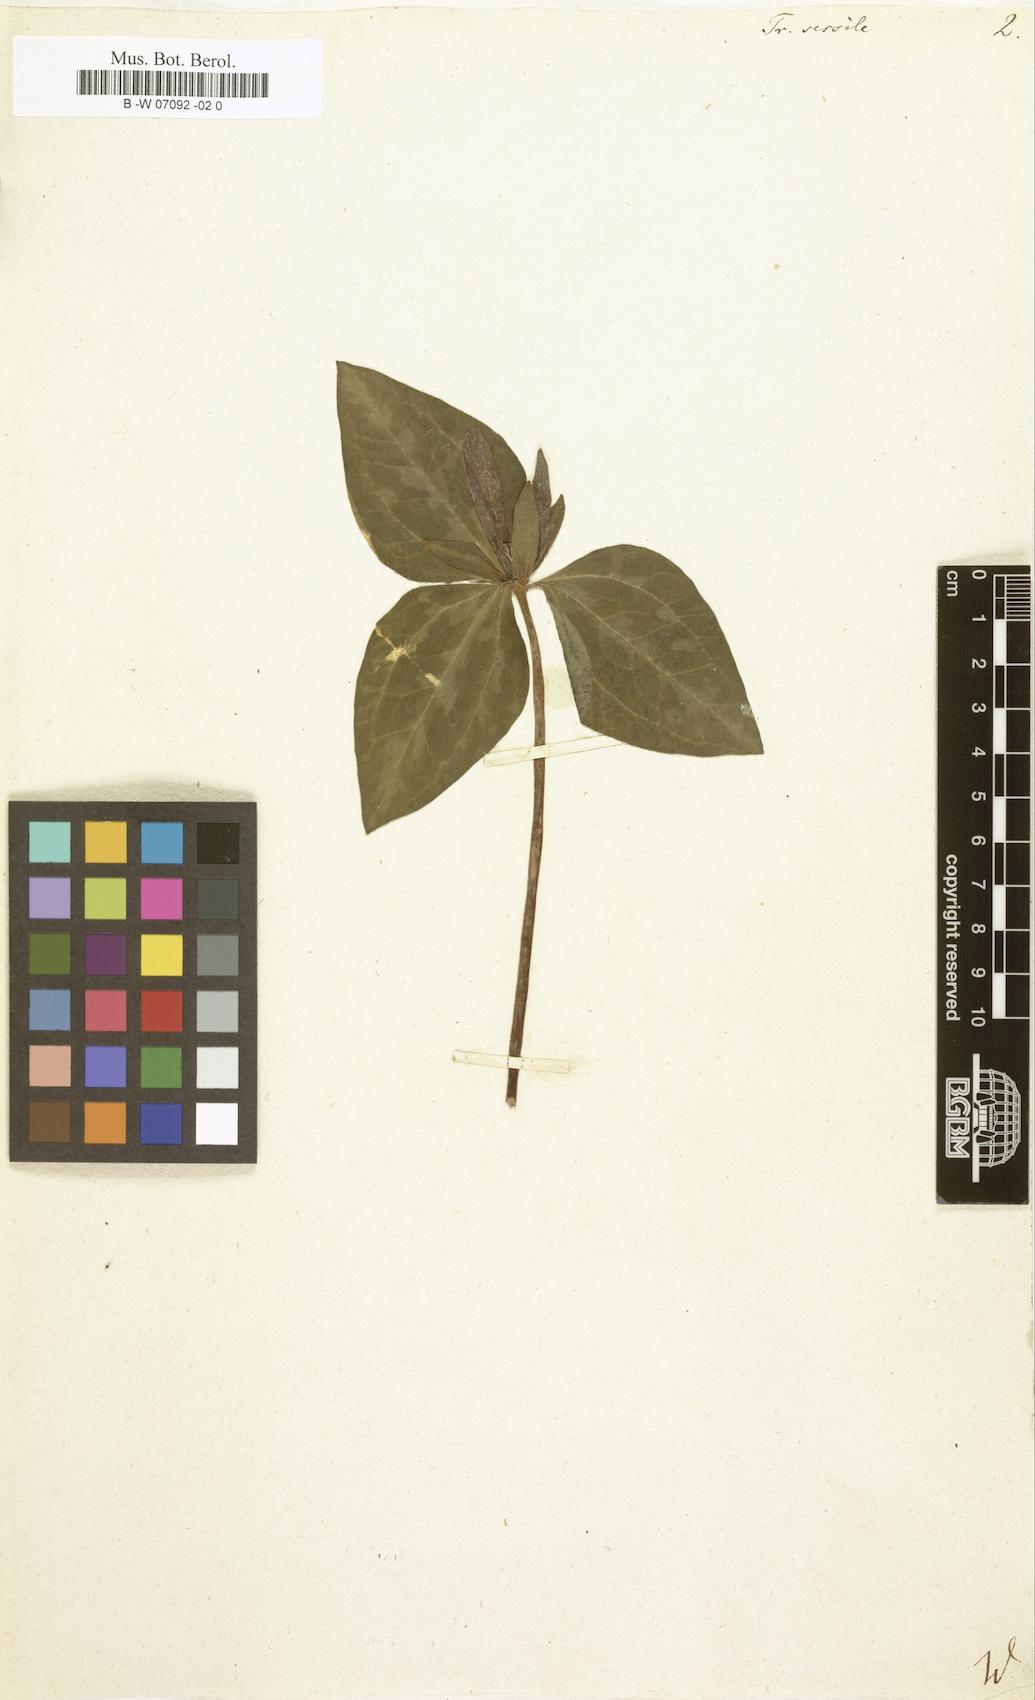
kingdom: Plantae
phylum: Tracheophyta
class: Liliopsida
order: Liliales
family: Melanthiaceae
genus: Trillium
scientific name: Trillium sessile
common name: Sessile trillium
